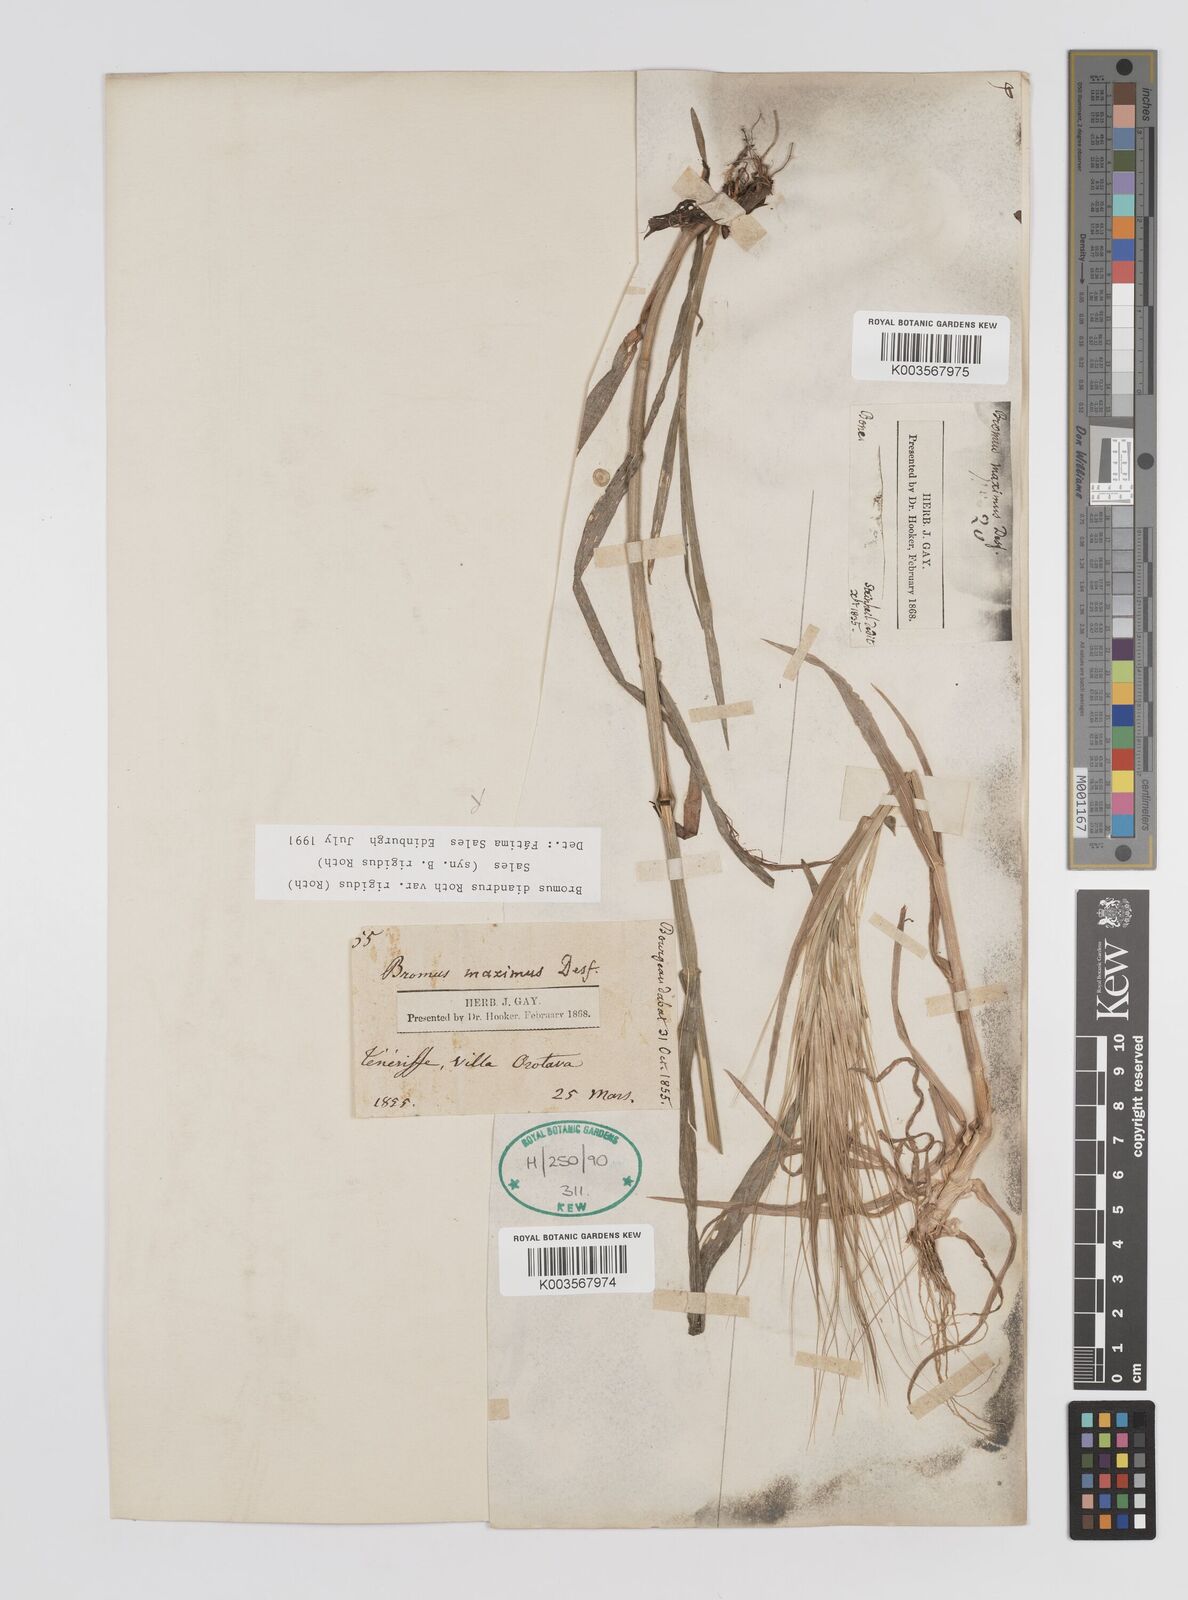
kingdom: Plantae
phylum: Tracheophyta
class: Liliopsida
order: Poales
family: Poaceae
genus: Bromus
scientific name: Bromus rigidus
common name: Ripgut brome
